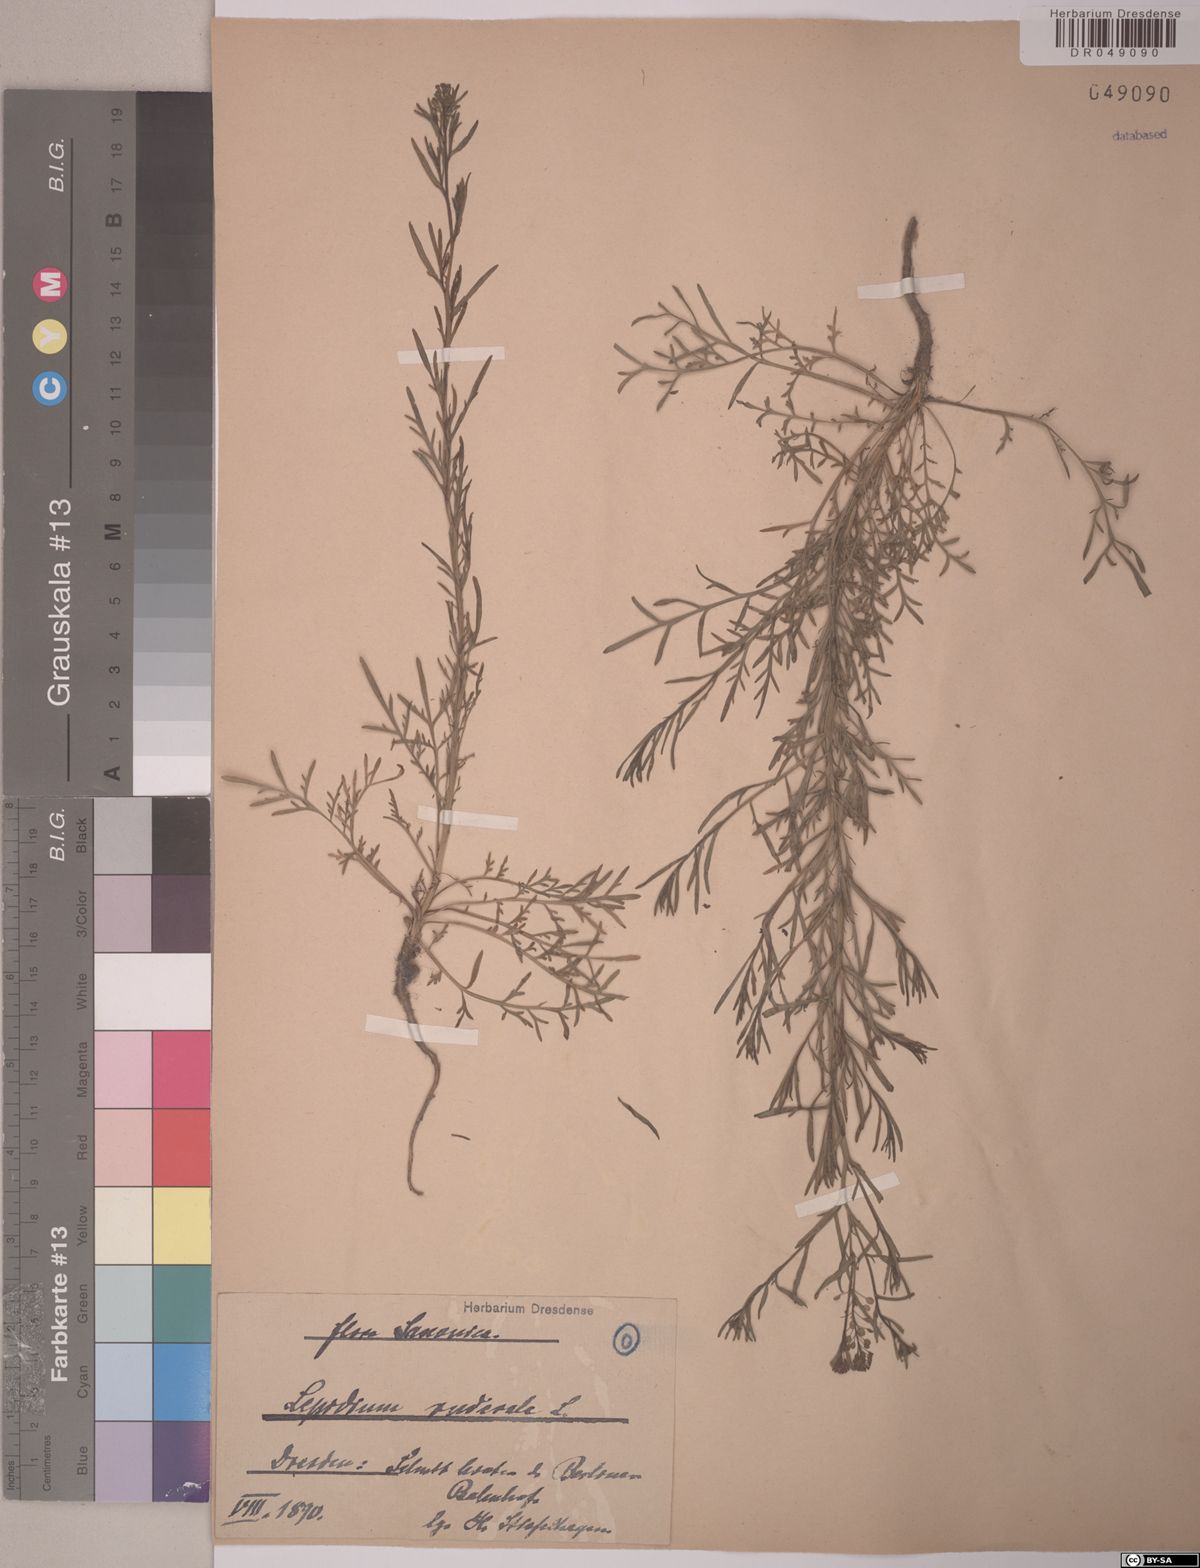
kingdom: Plantae
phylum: Tracheophyta
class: Magnoliopsida
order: Brassicales
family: Brassicaceae
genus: Lepidium
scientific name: Lepidium ruderale
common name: Narrow-leaved pepperwort
